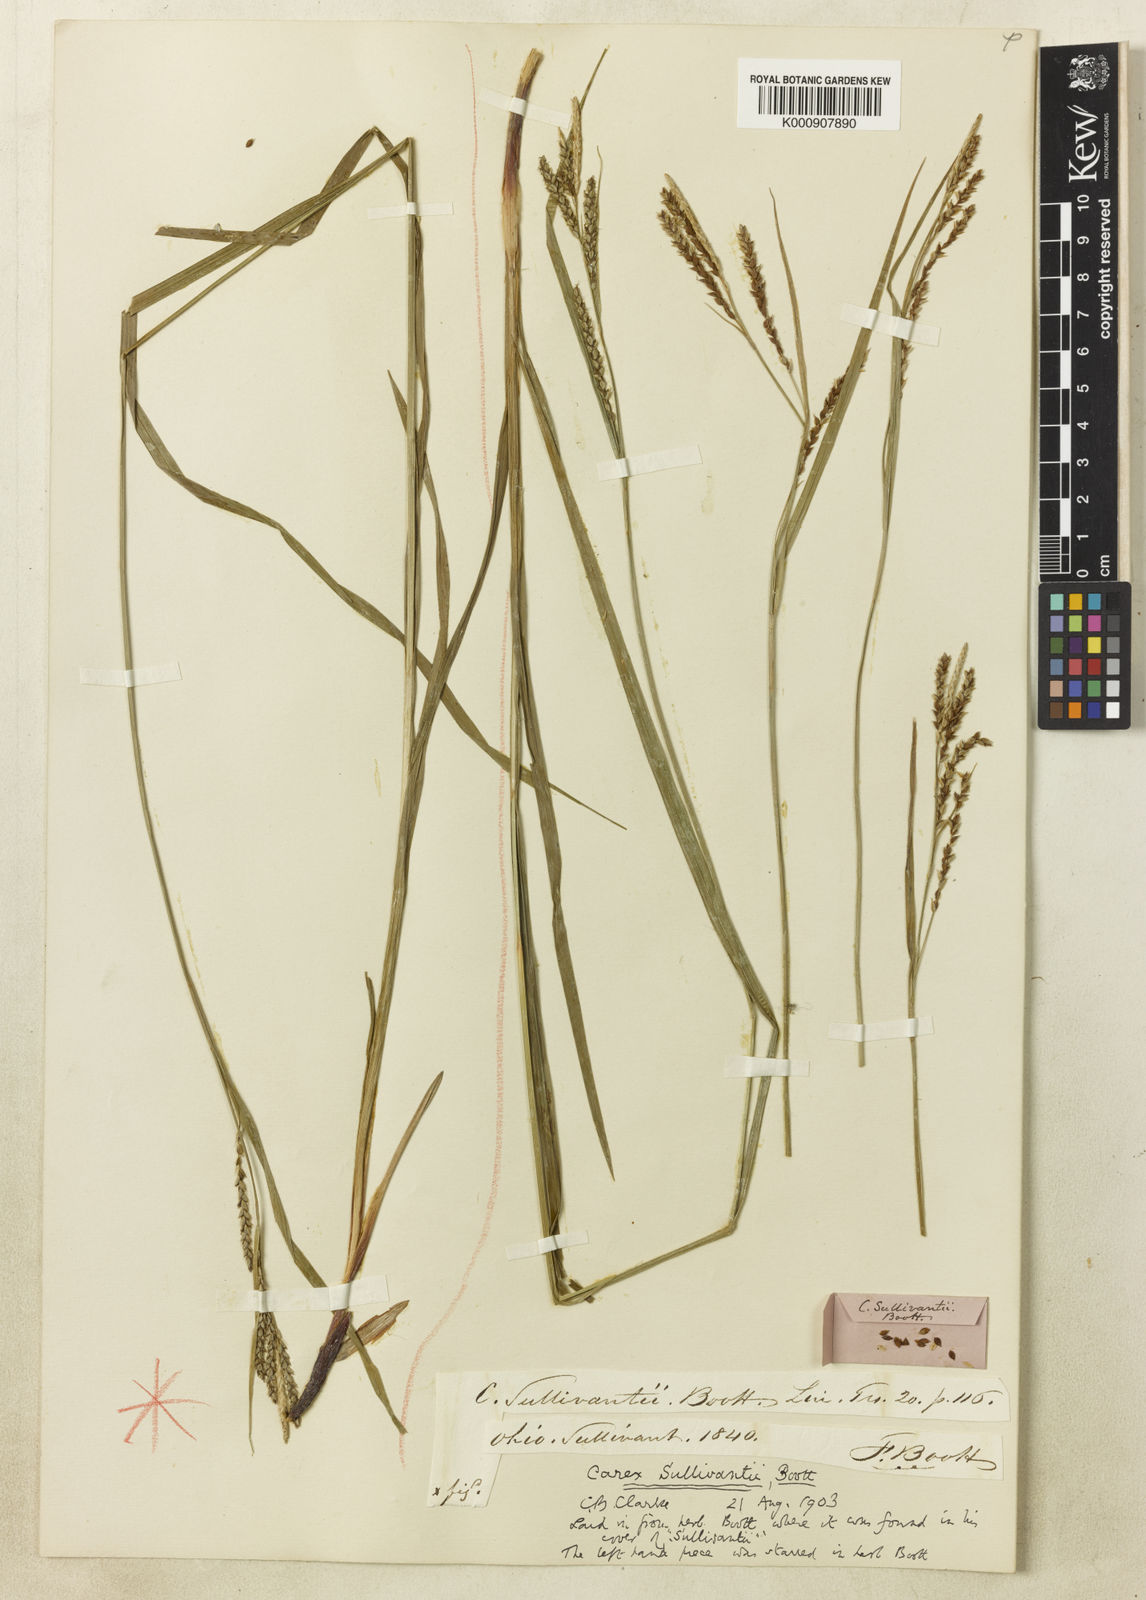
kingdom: Plantae
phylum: Tracheophyta
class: Liliopsida
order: Poales
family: Cyperaceae
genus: Carex
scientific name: Carex sullivantii
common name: Sullivant's sedge
